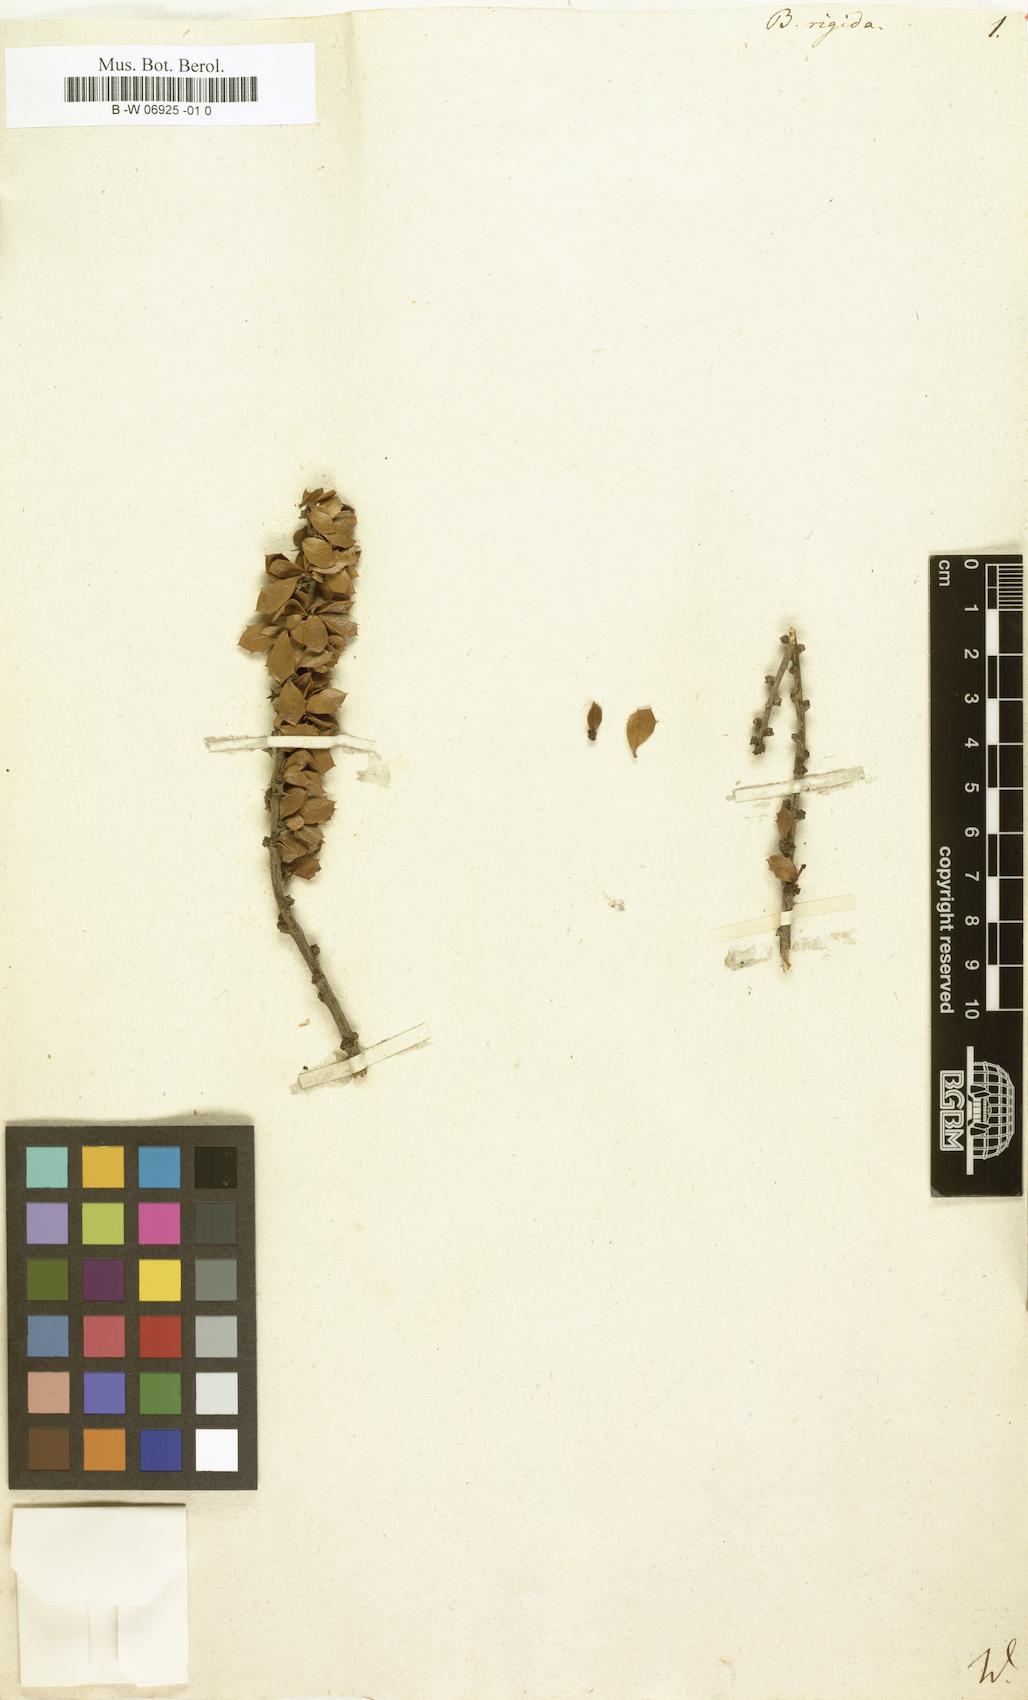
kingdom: Plantae
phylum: Tracheophyta
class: Magnoliopsida
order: Ranunculales
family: Berberidaceae
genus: Berberis
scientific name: Berberis rigida
